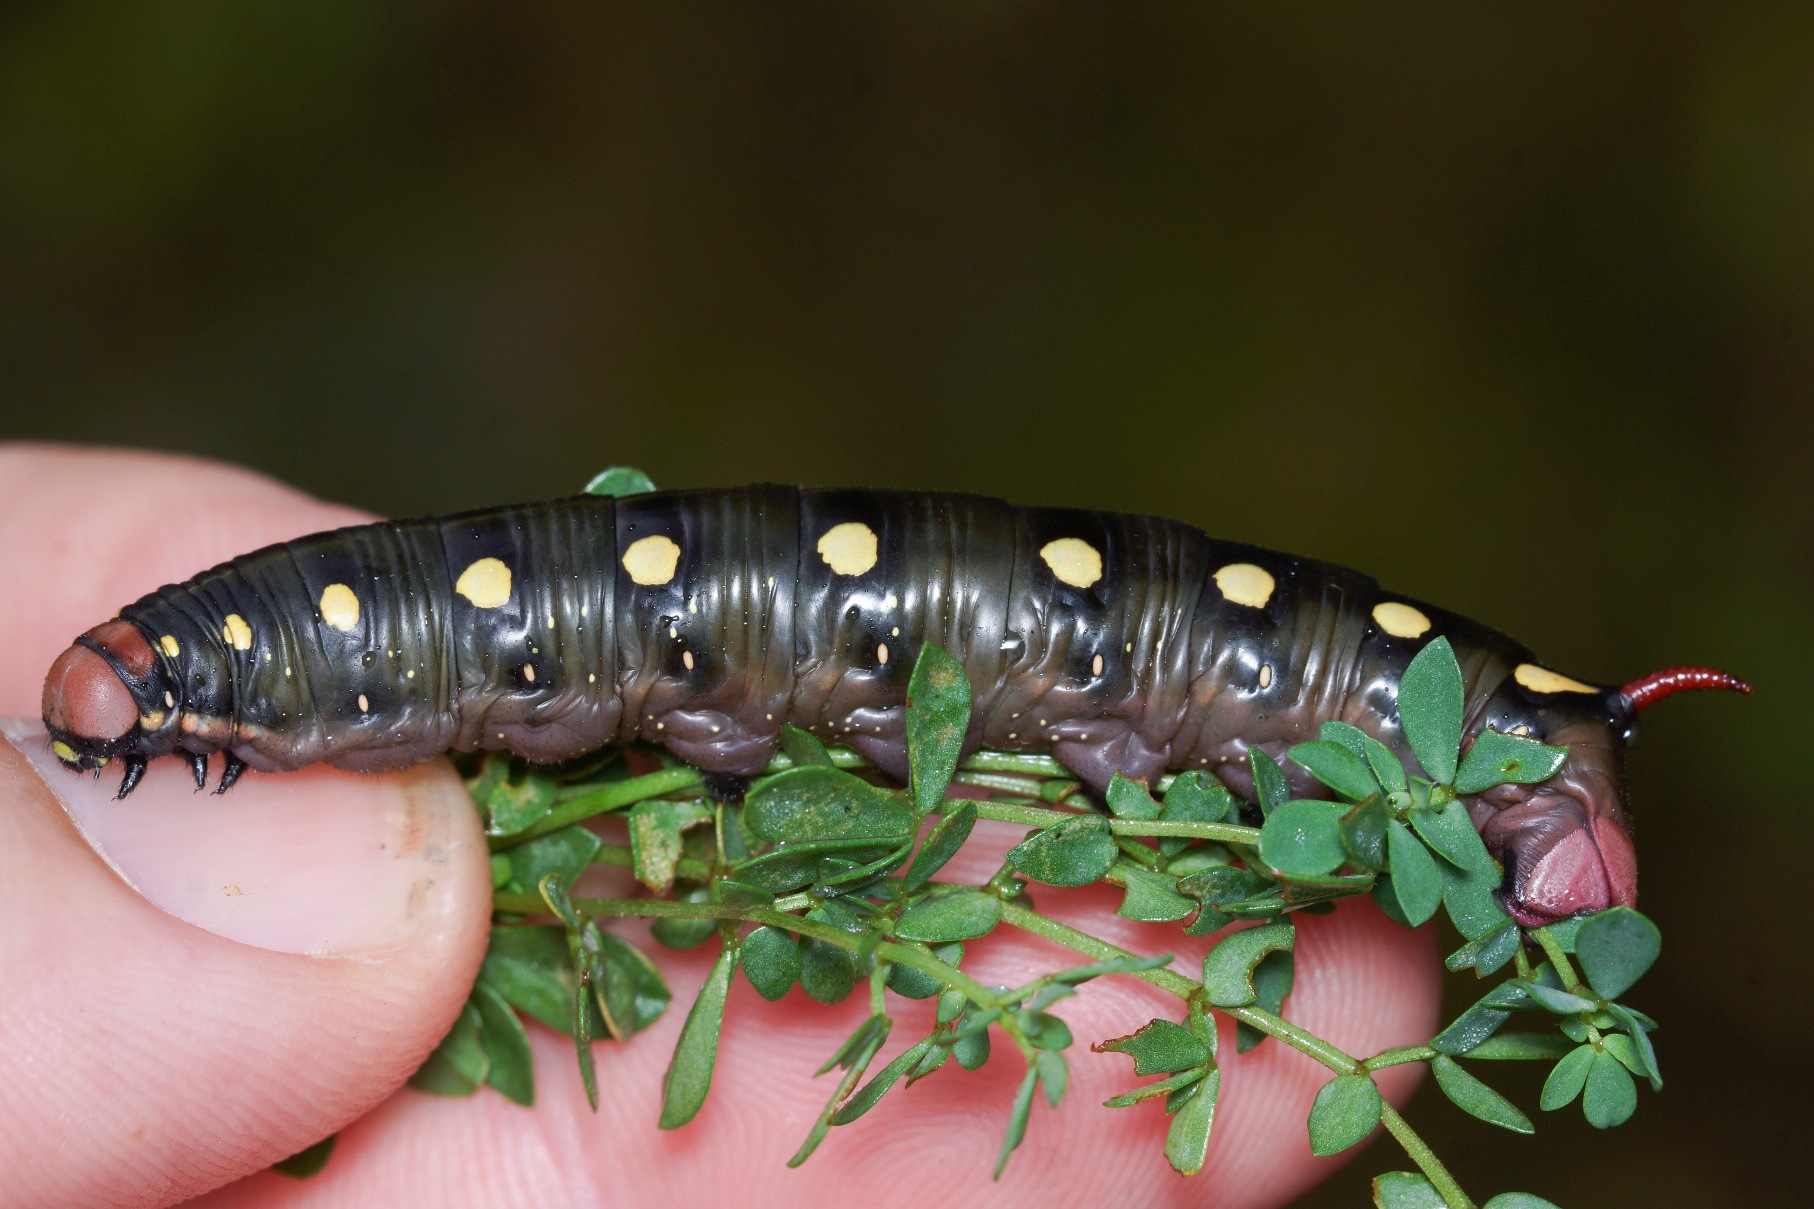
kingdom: Animalia
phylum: Arthropoda
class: Insecta
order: Lepidoptera
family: Sphingidae
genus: Hyles
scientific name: Hyles gallii
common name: Snerresværmer
